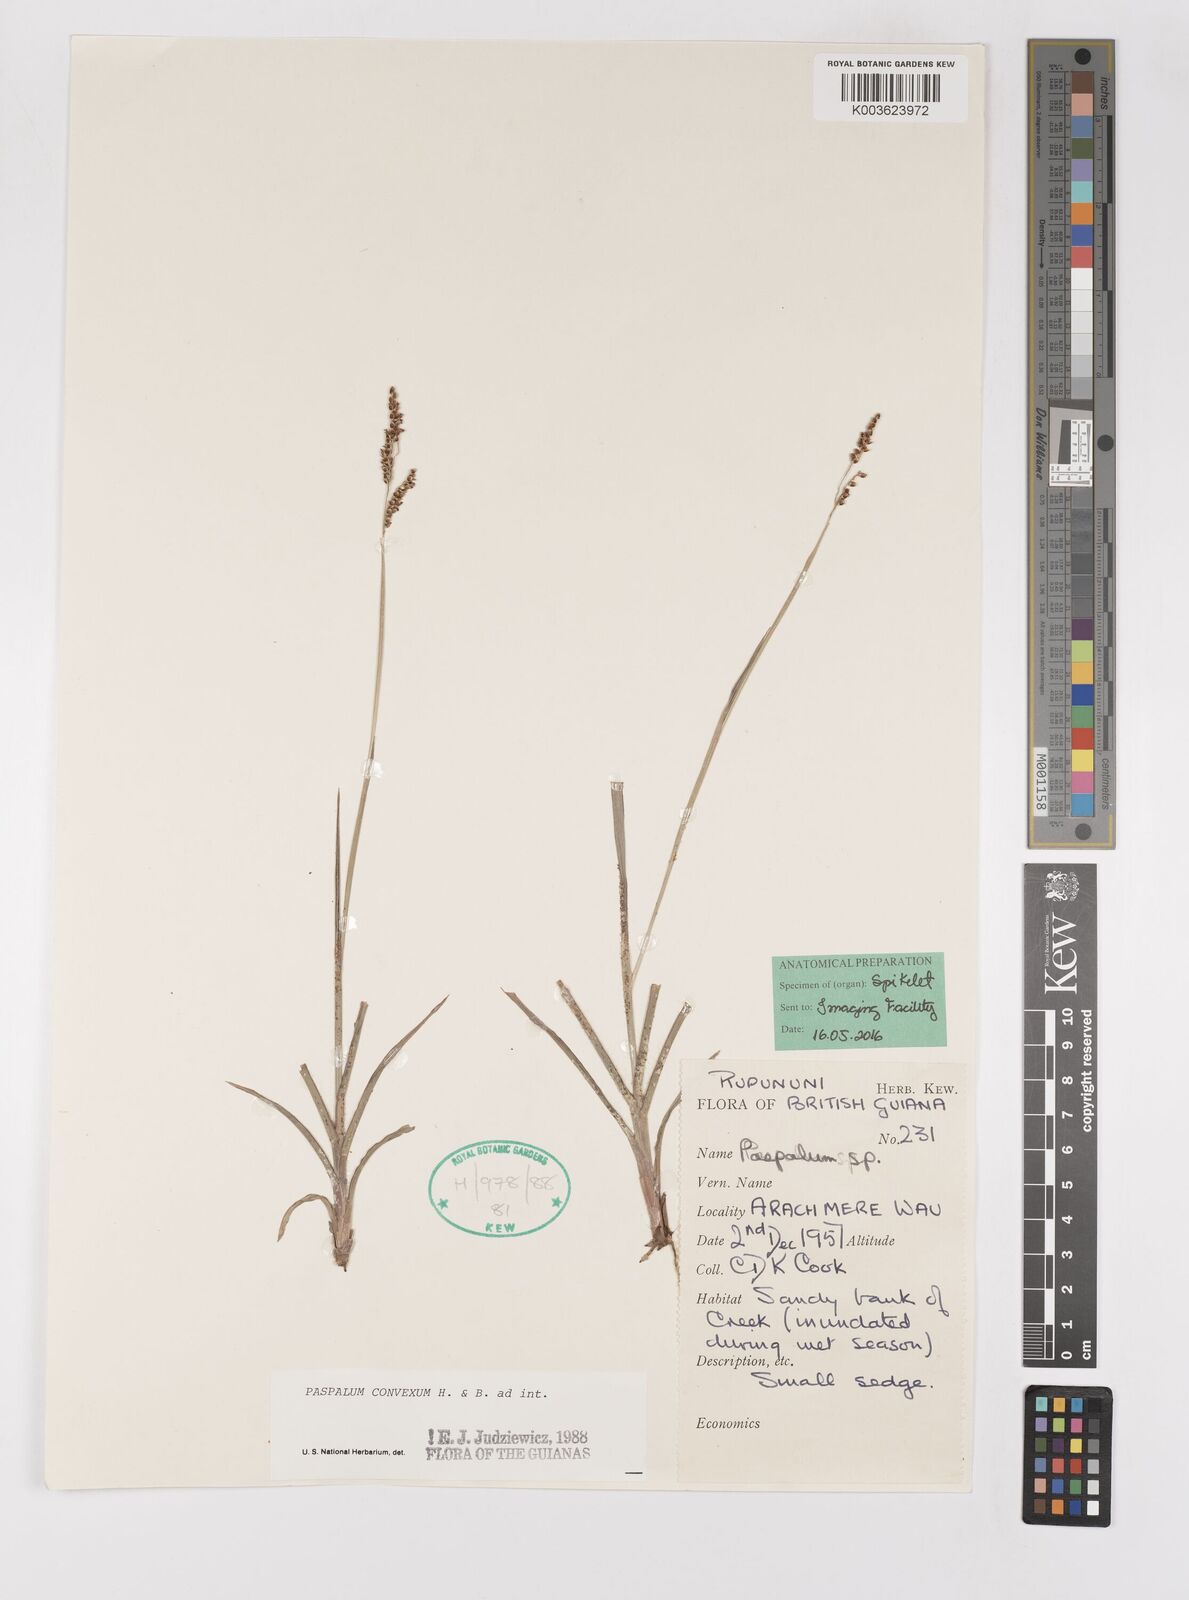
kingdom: Plantae
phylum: Tracheophyta
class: Liliopsida
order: Poales
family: Poaceae
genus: Paspalum
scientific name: Paspalum convexum
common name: Latin american crowngrass
